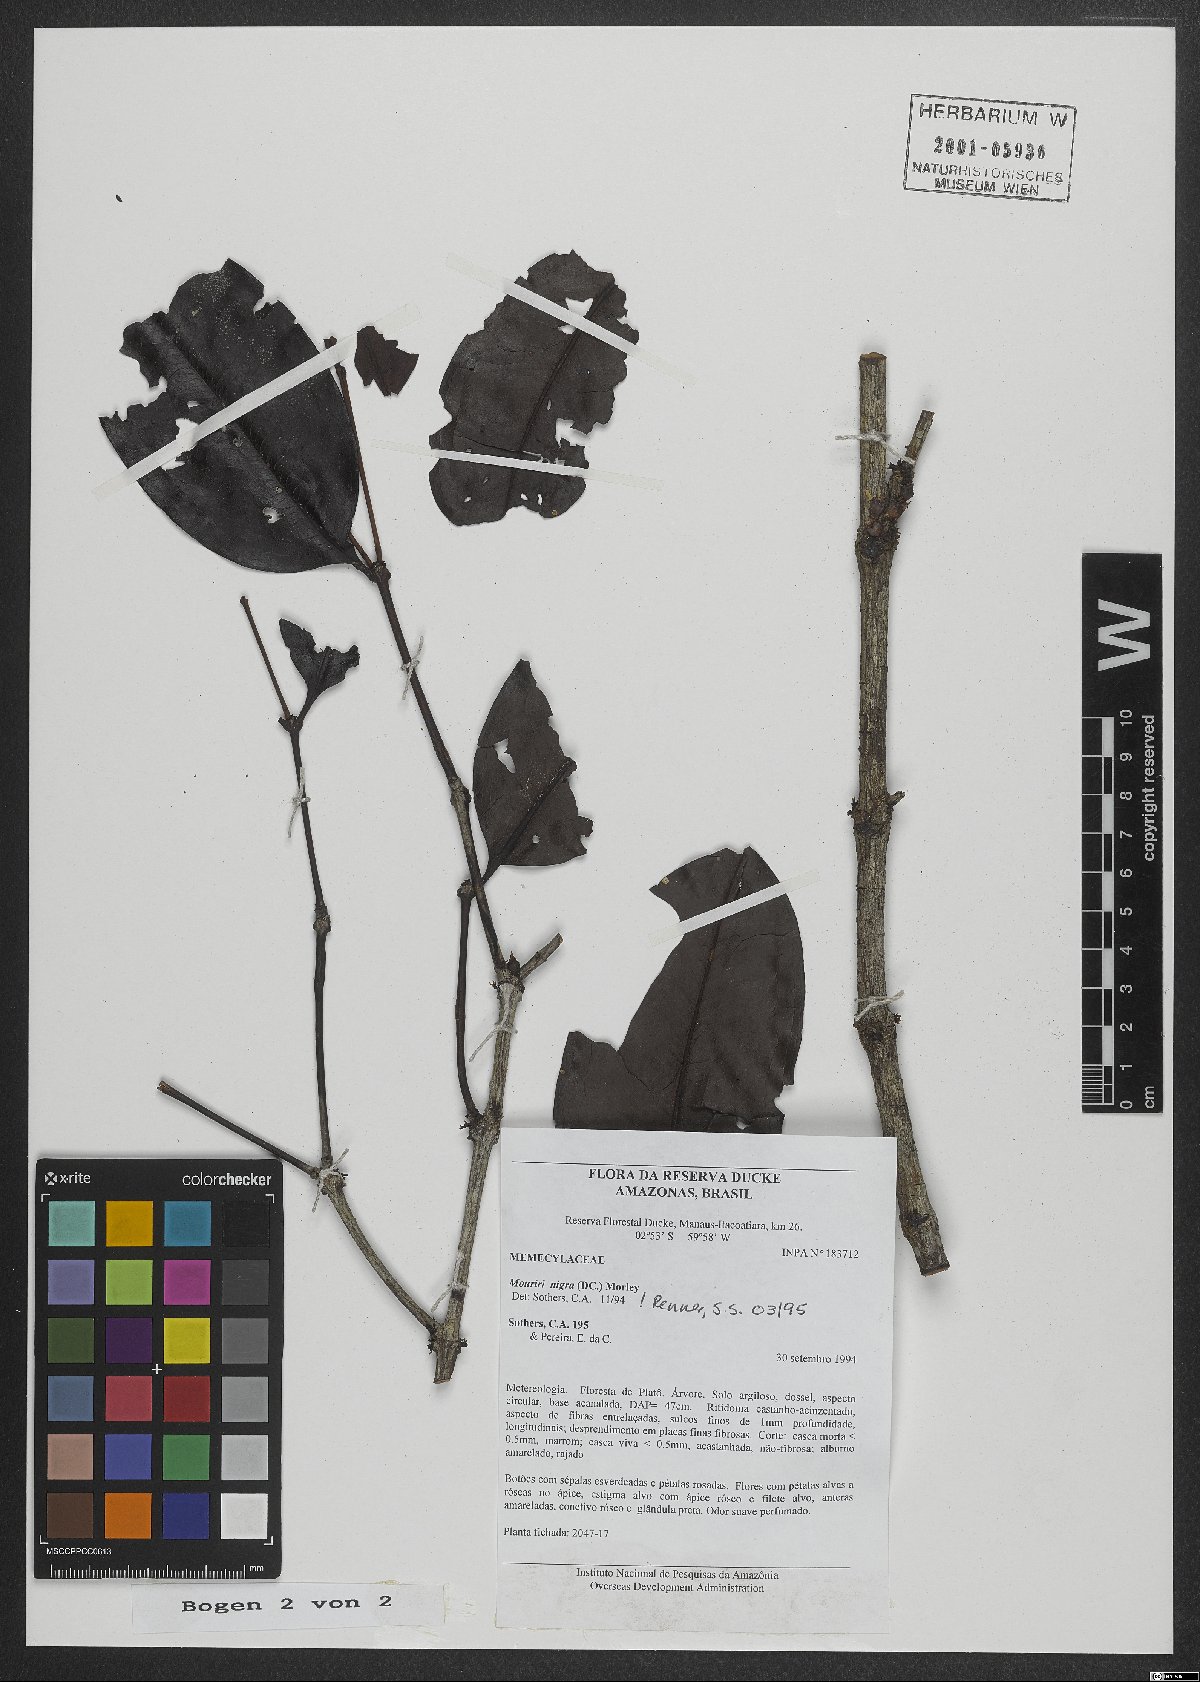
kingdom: Plantae
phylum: Tracheophyta
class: Magnoliopsida
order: Myrtales
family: Melastomataceae
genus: Mouriri
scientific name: Mouriri nigra
